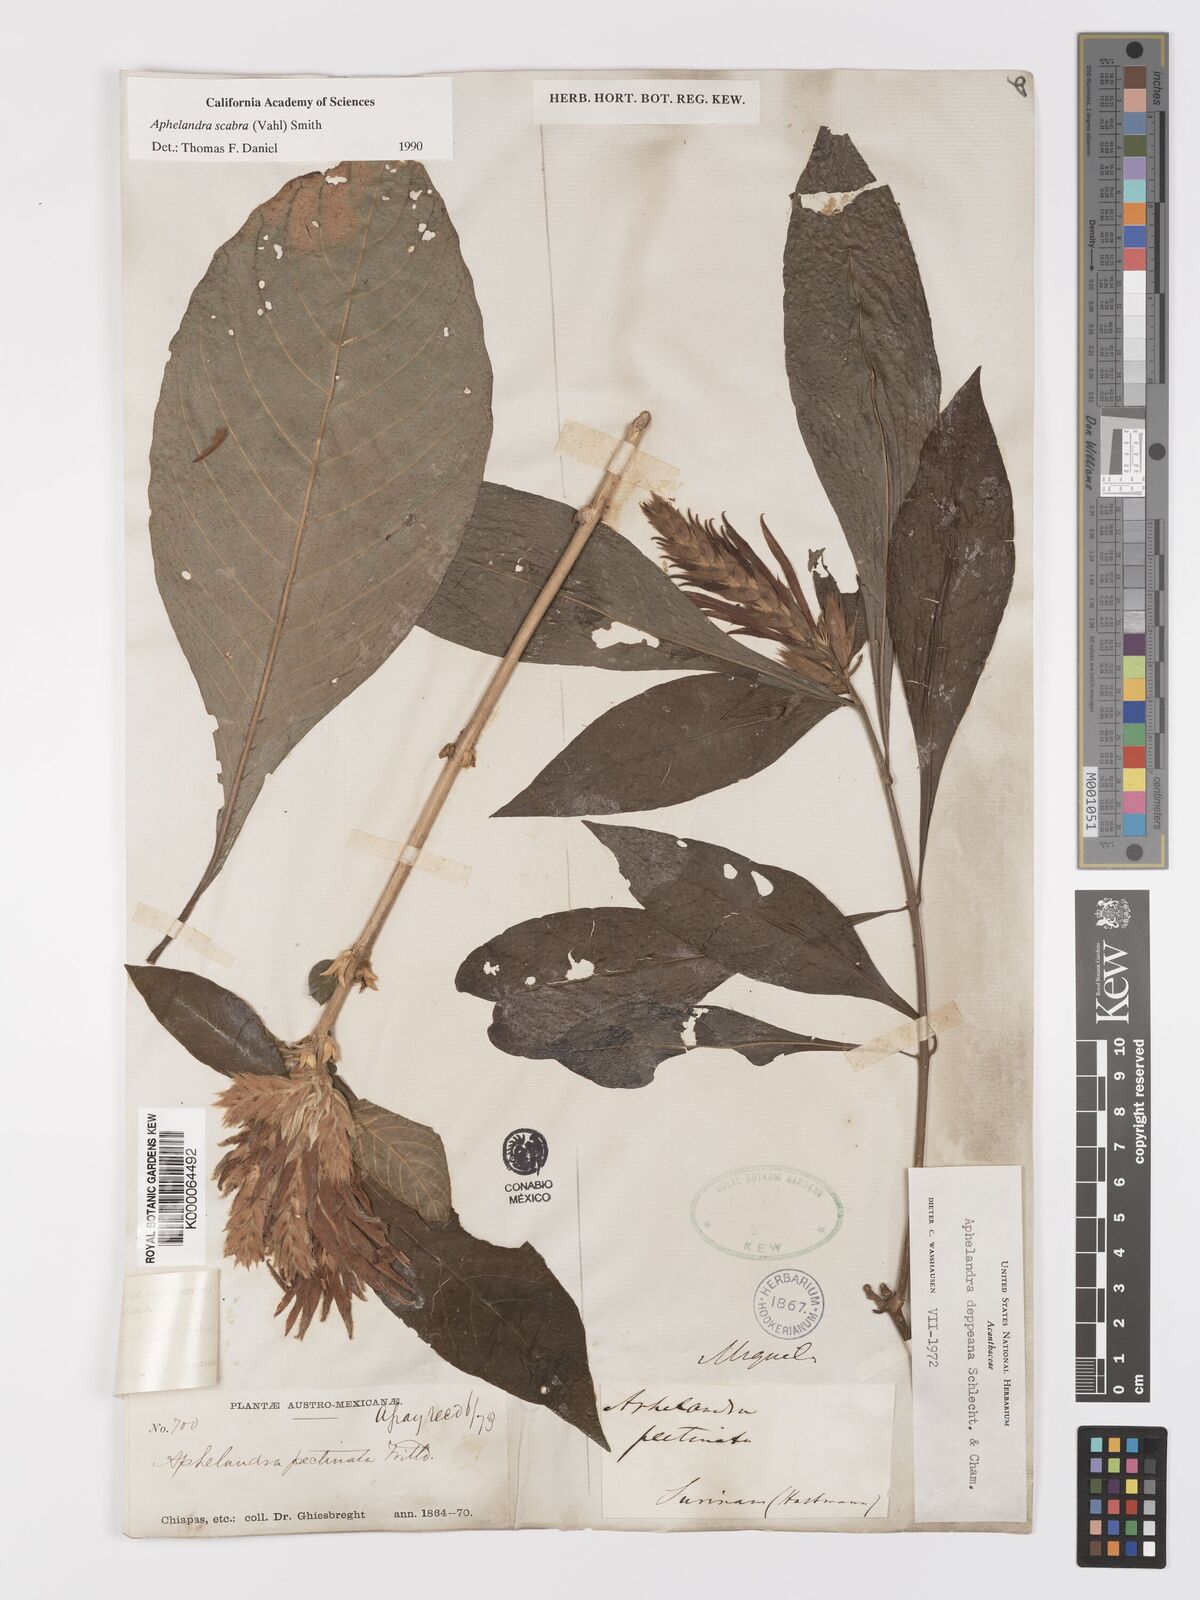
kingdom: Plantae
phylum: Tracheophyta
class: Magnoliopsida
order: Lamiales
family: Acanthaceae
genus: Aphelandra
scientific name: Aphelandra scabra
